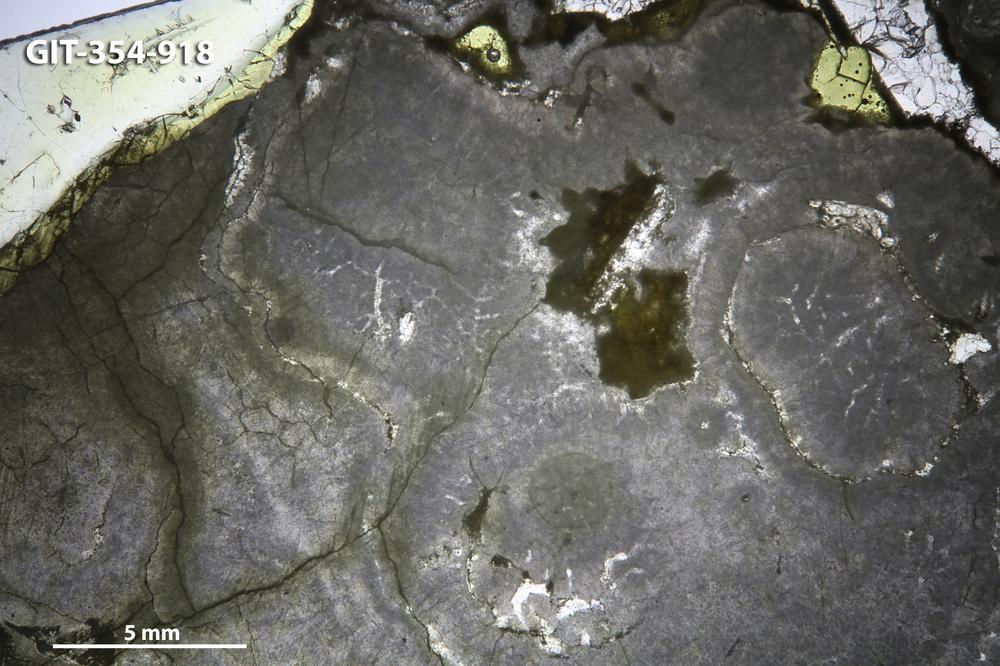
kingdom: Animalia
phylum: Porifera
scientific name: Porifera
